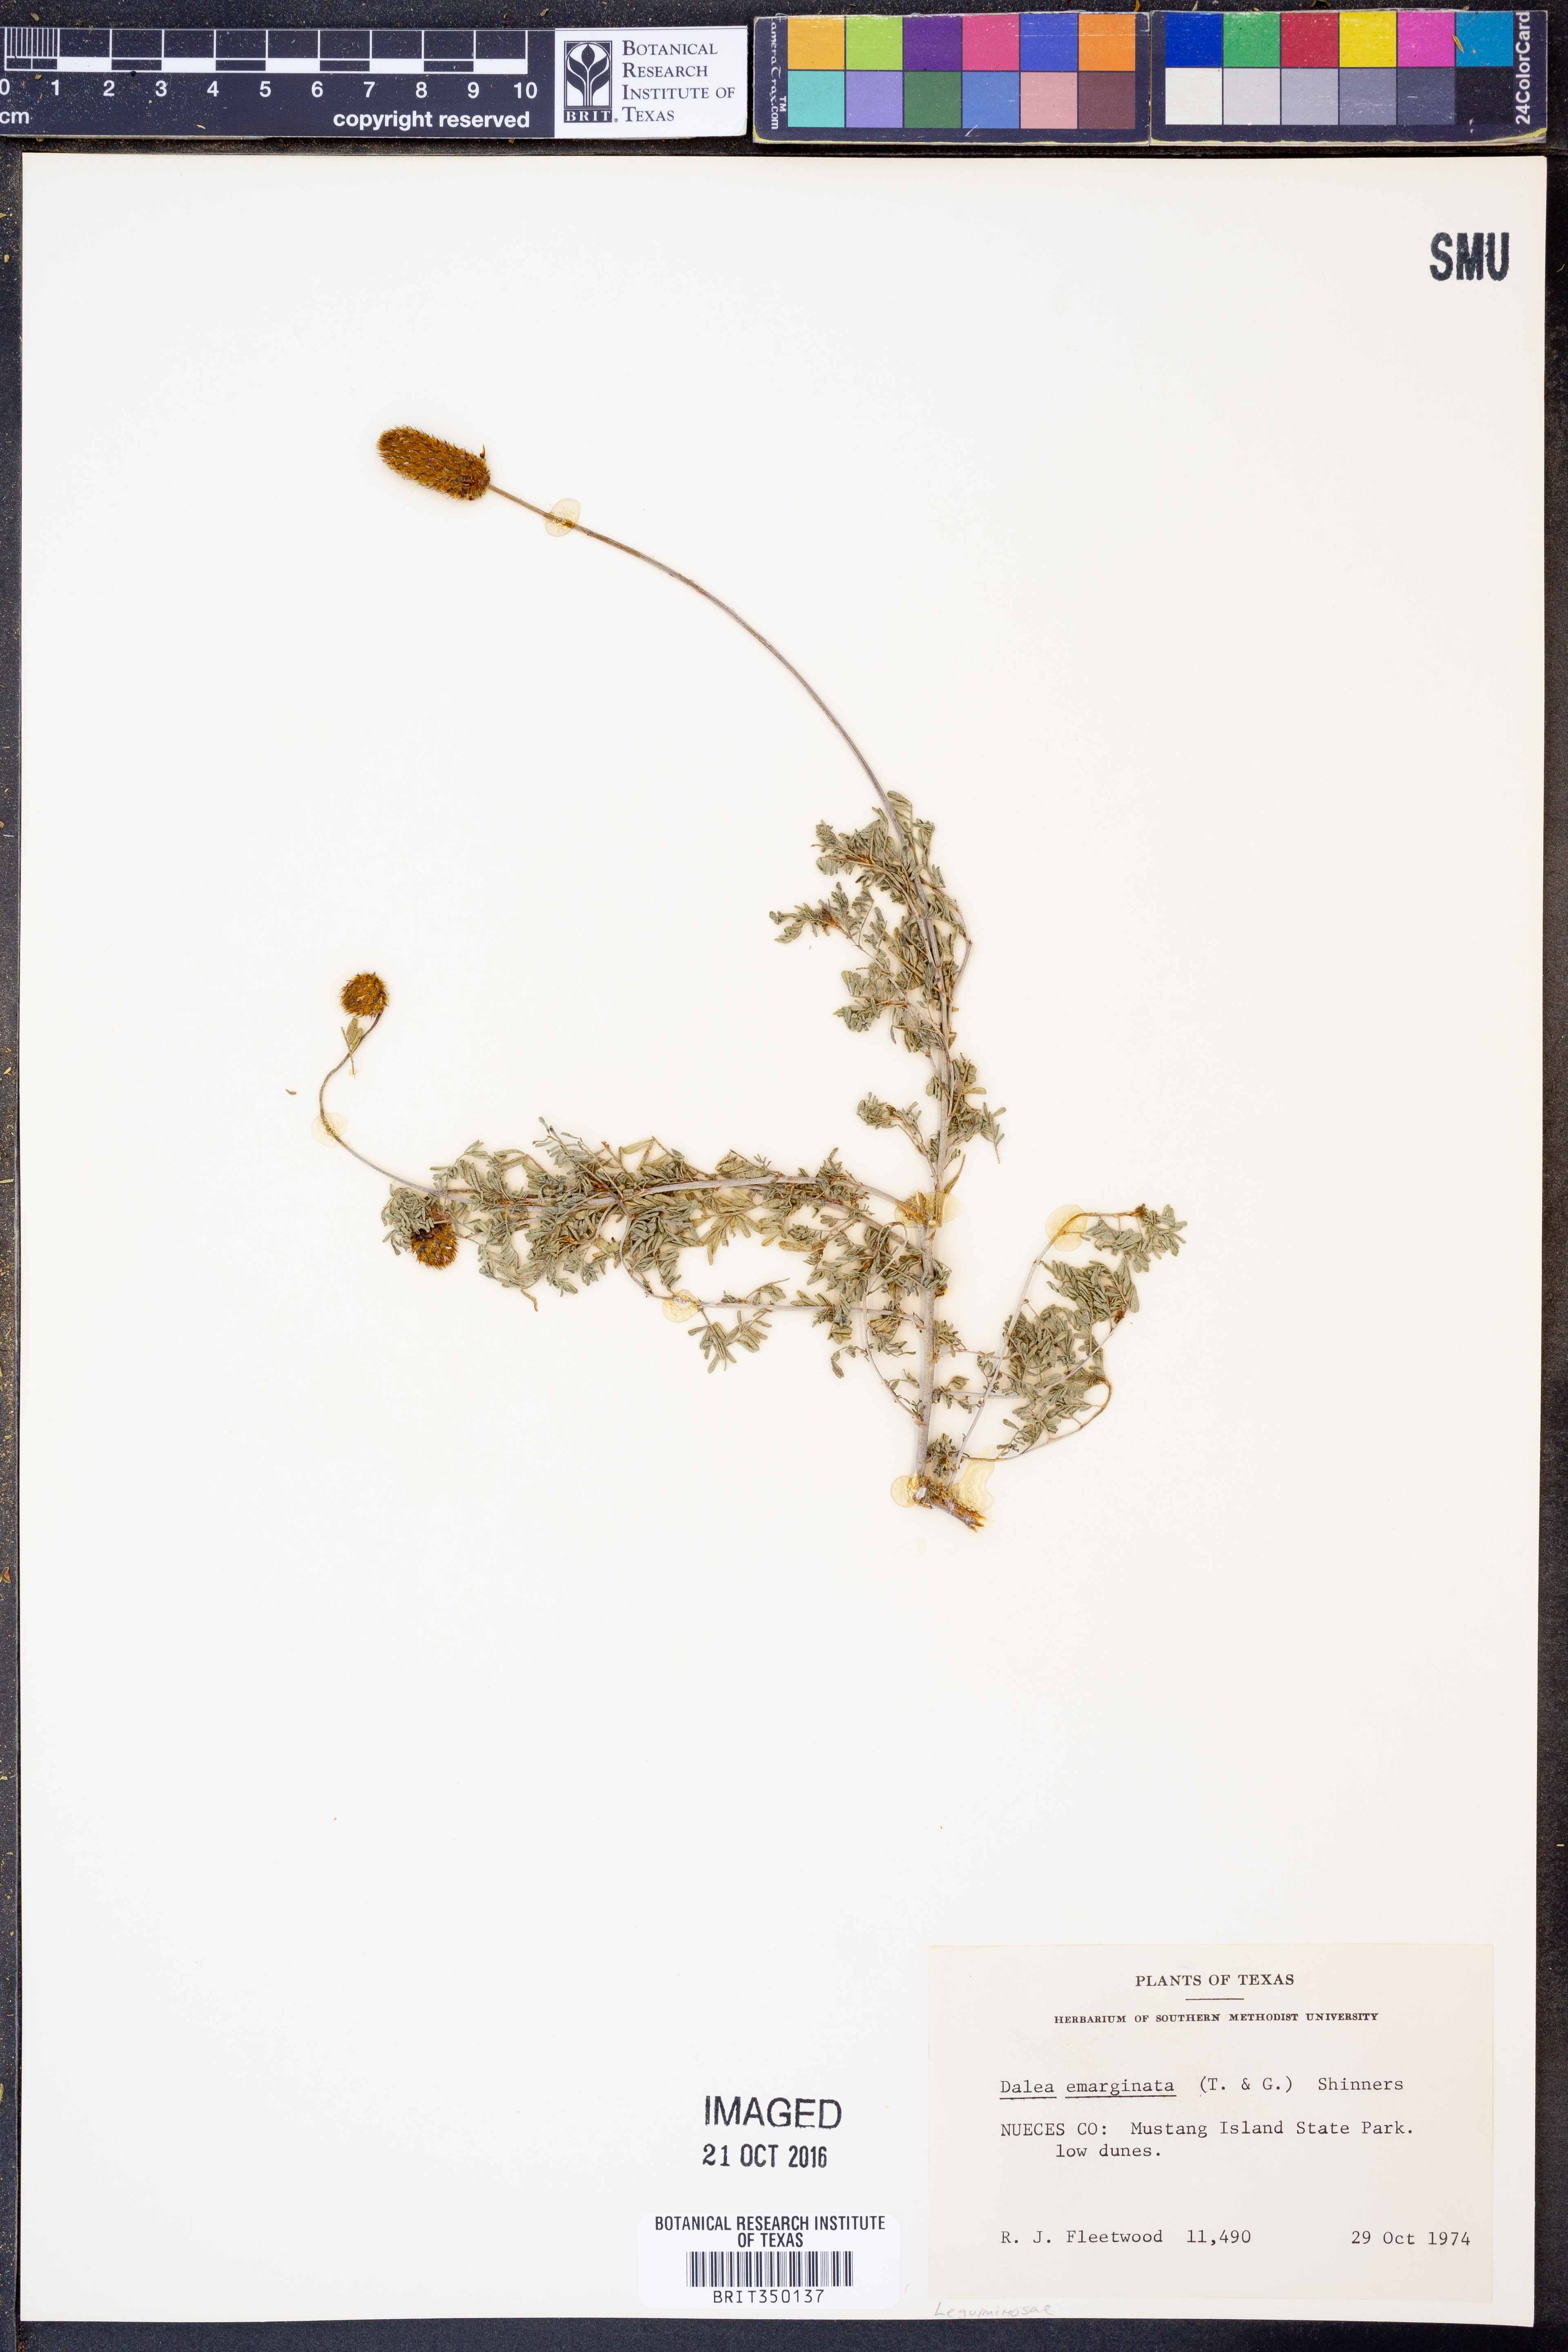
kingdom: Plantae
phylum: Tracheophyta
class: Magnoliopsida
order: Fabales
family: Fabaceae
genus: Dalea
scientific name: Dalea emarginata
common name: Wedgeleaf prairie clover
